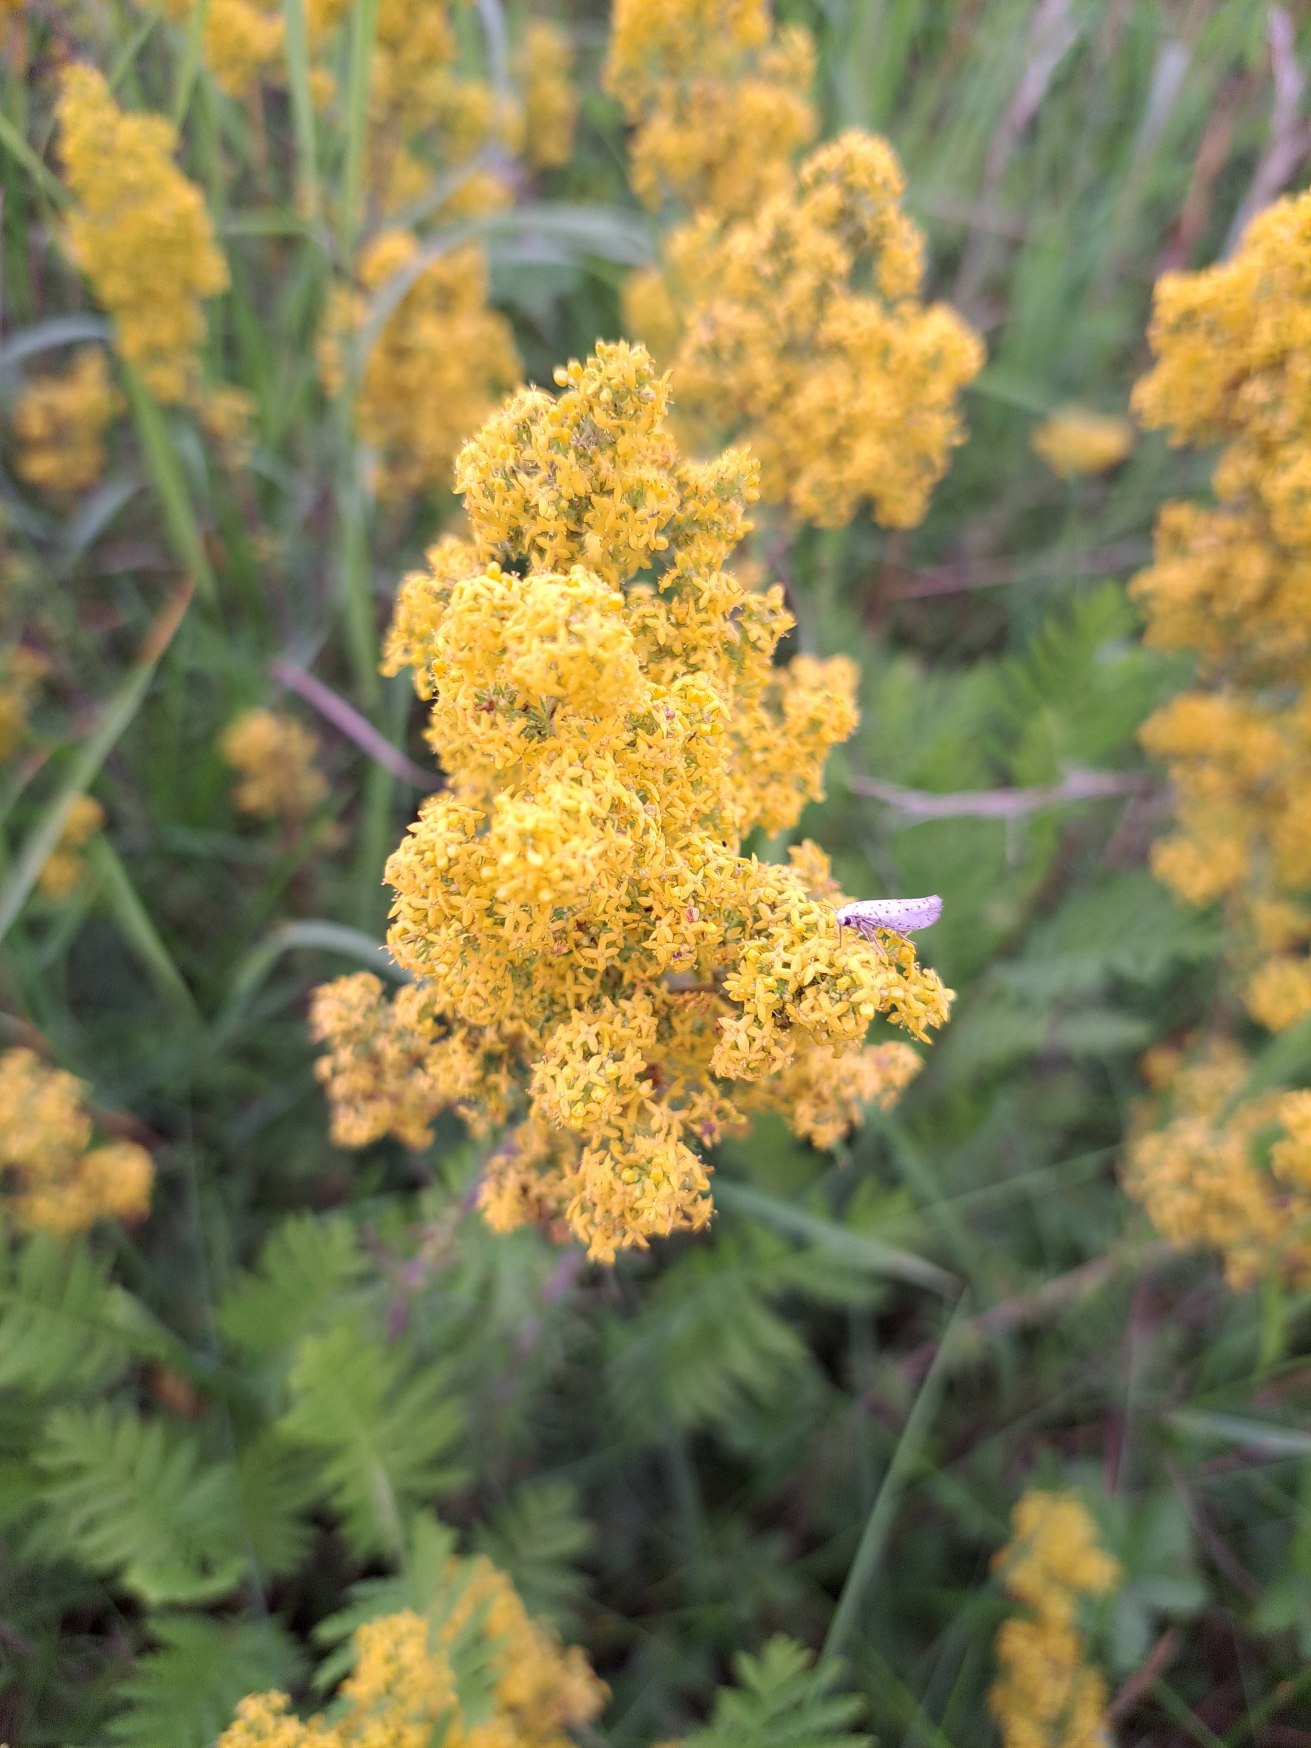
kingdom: Plantae
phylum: Tracheophyta
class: Magnoliopsida
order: Gentianales
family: Rubiaceae
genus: Galium
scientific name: Galium verum
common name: Gul snerre
